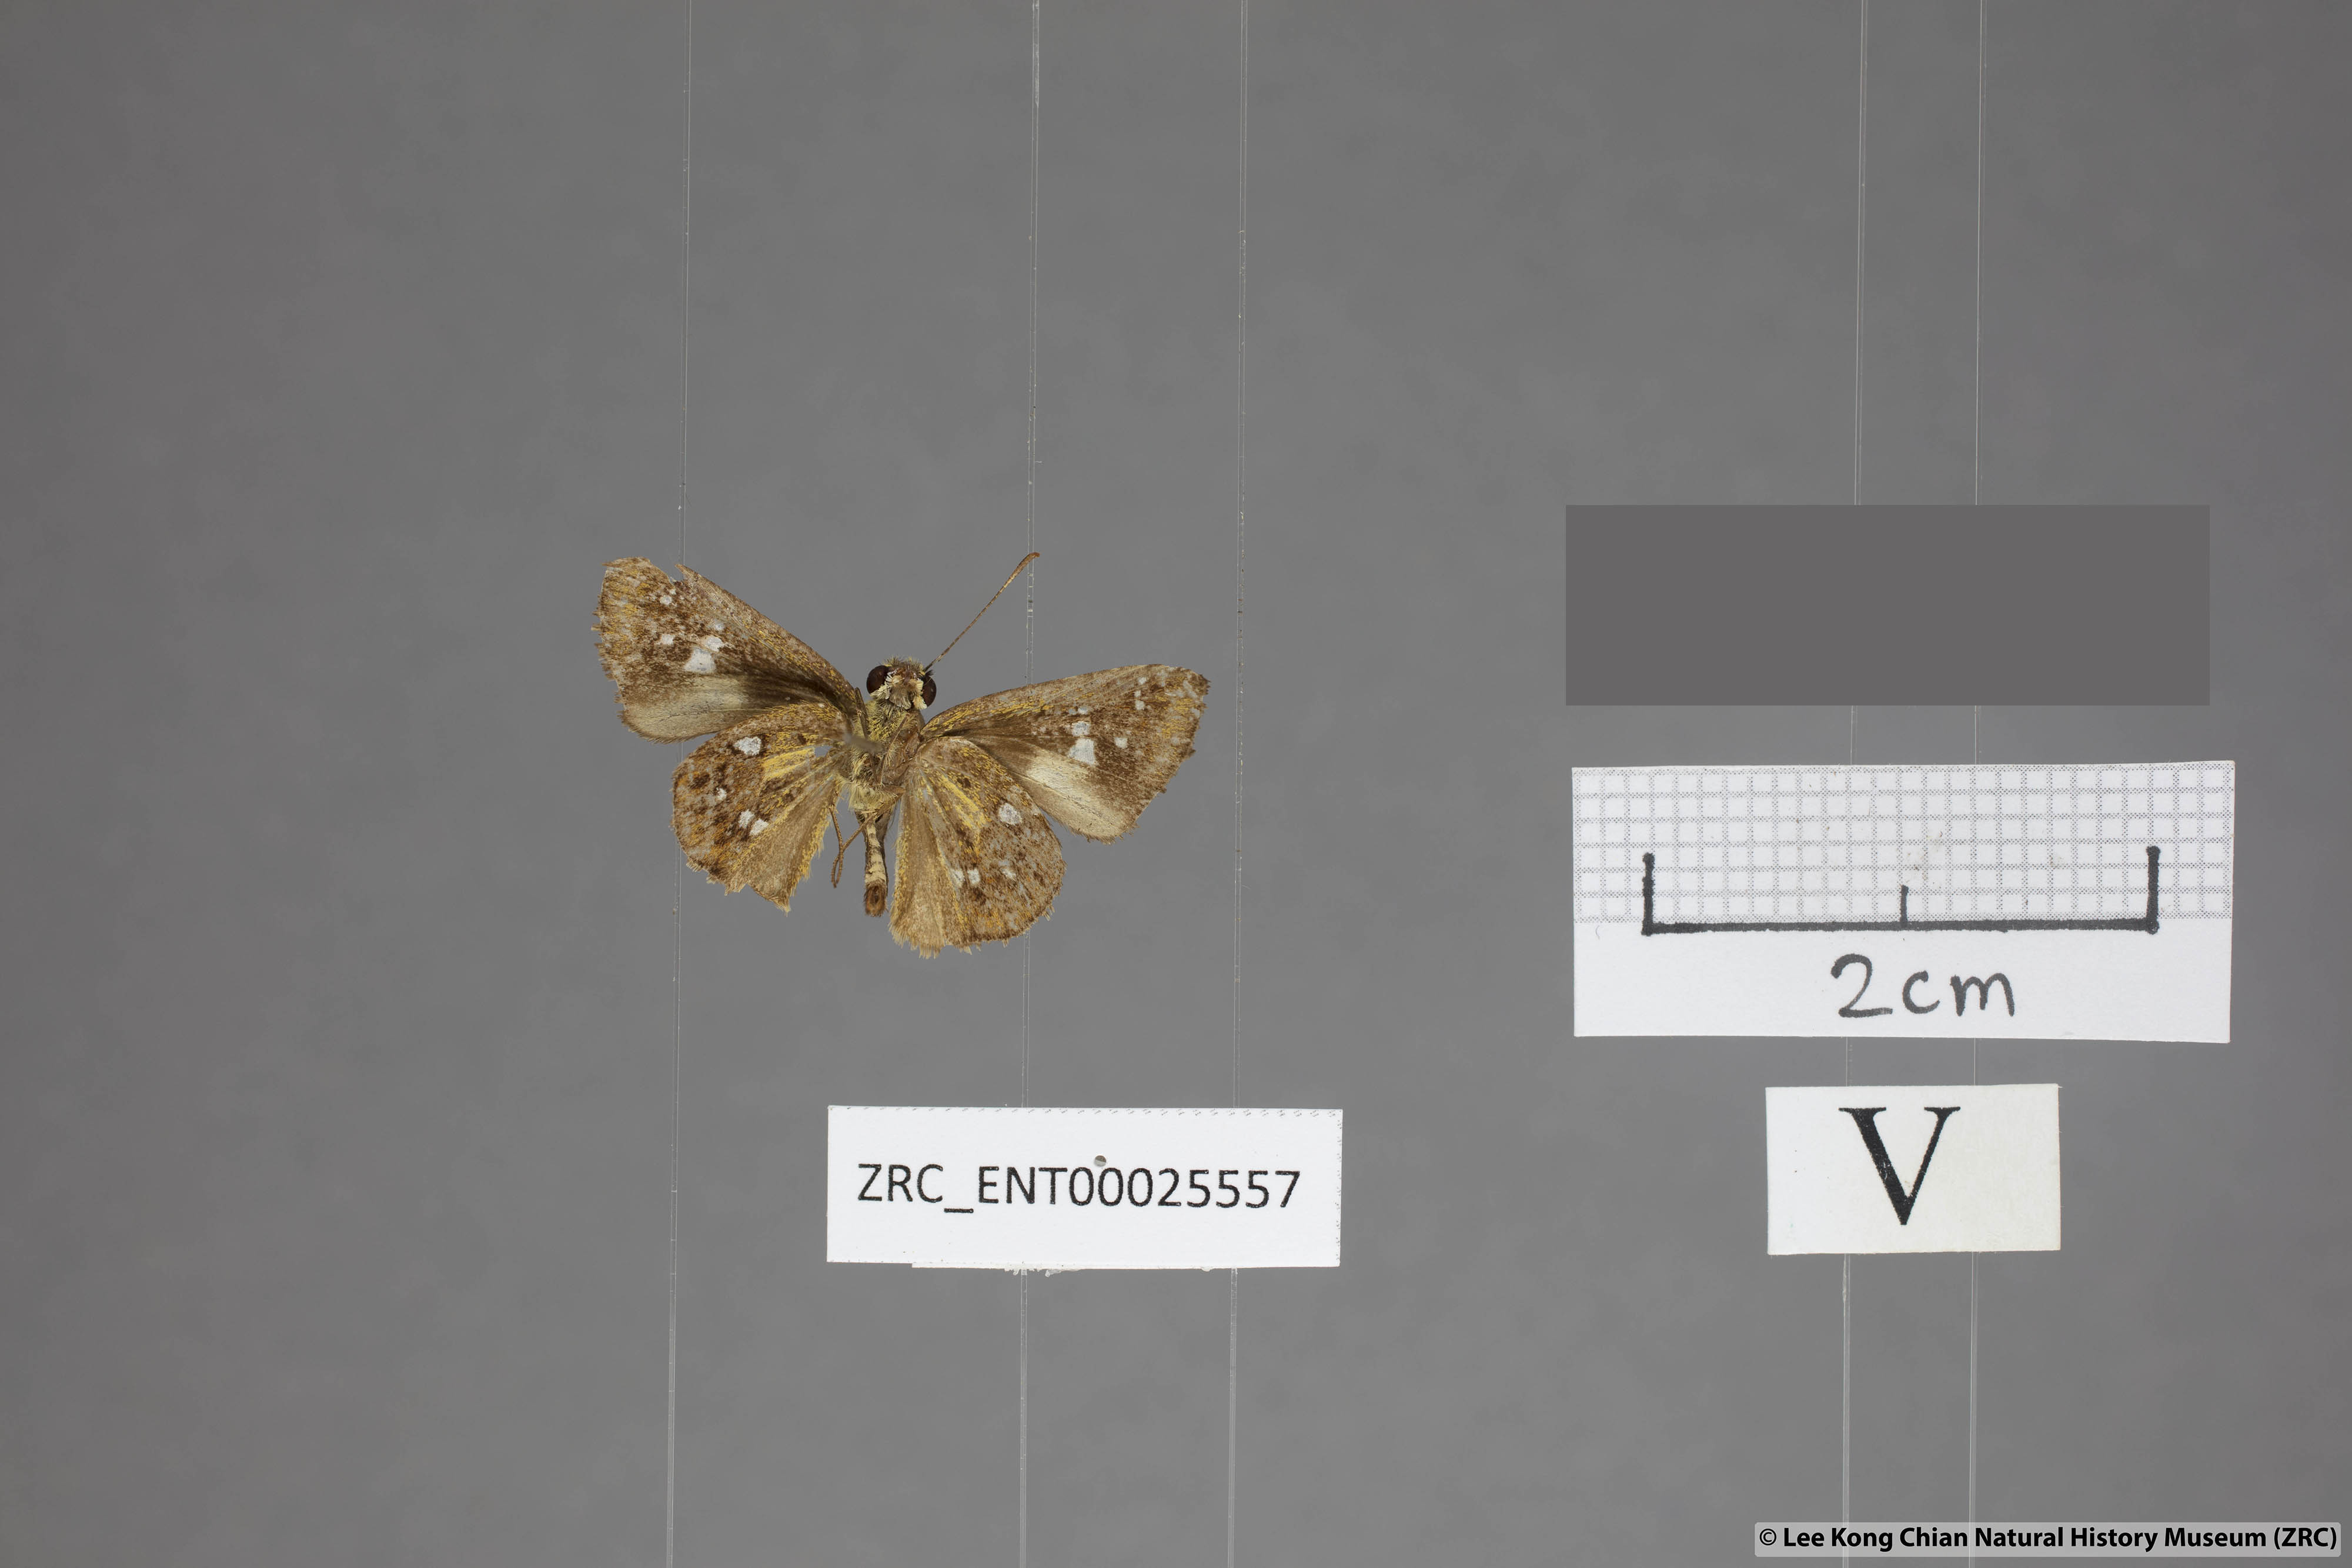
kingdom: Animalia
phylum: Arthropoda
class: Insecta
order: Lepidoptera
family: Hesperiidae
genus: Scobura
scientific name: Scobura woolletti
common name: Brown forest bob
